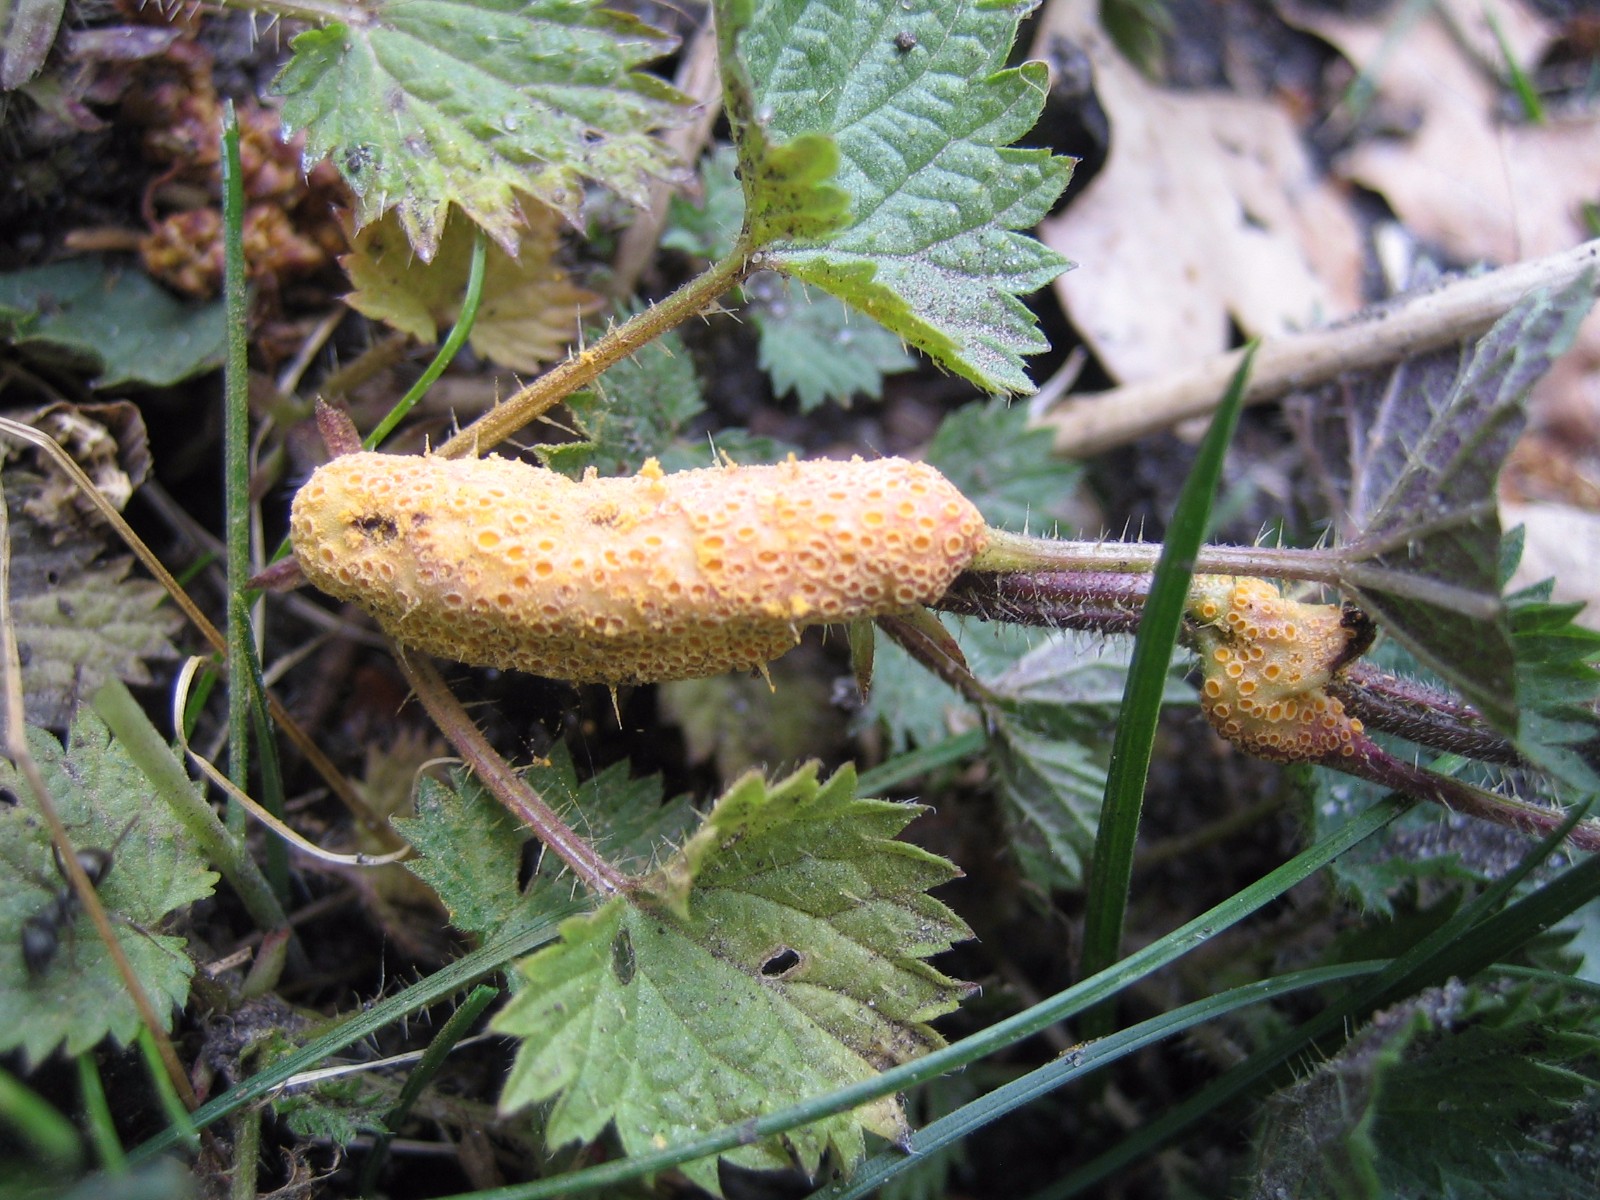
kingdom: Fungi
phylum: Basidiomycota
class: Pucciniomycetes
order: Pucciniales
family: Pucciniaceae
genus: Puccinia
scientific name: Puccinia urticata
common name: nældegalle-tvecellerust
